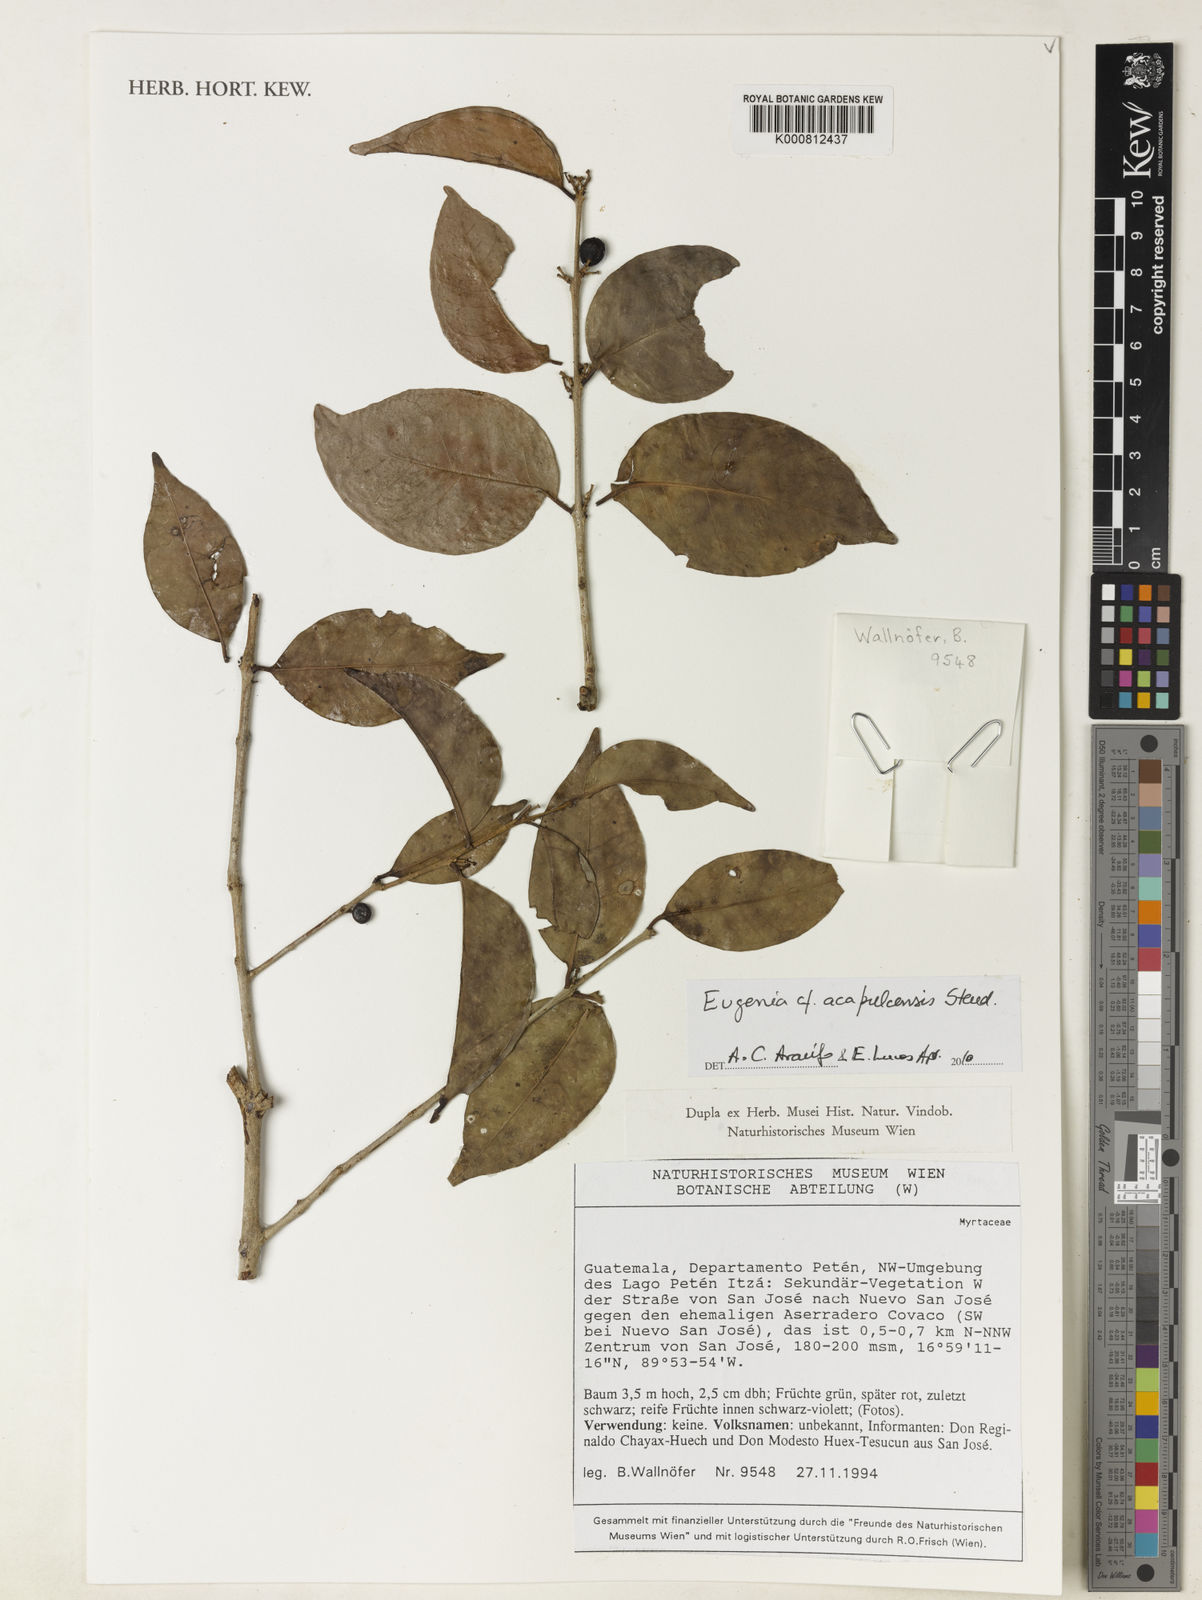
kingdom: Plantae
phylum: Tracheophyta
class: Magnoliopsida
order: Myrtales
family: Myrtaceae
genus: Eugenia
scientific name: Eugenia acapulcensis
